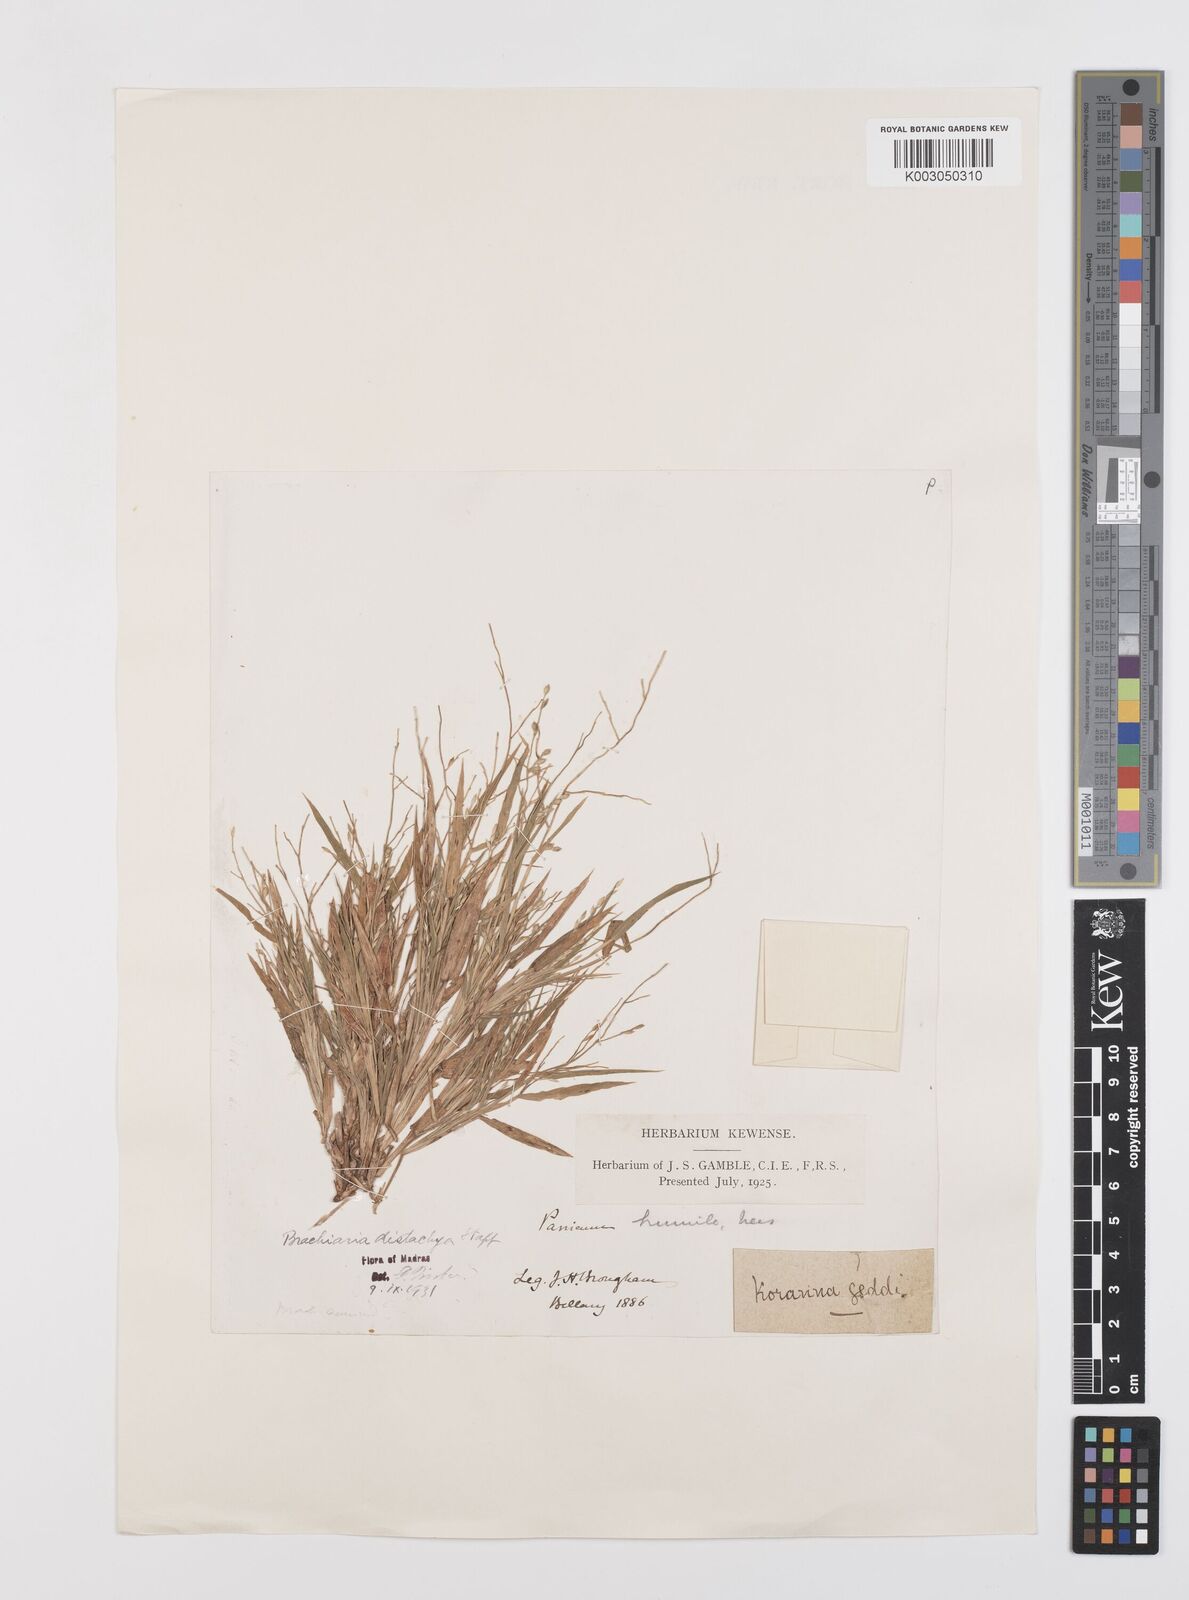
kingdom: Plantae
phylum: Tracheophyta
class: Liliopsida
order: Poales
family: Poaceae
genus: Urochloa
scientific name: Urochloa ramosa
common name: Browntop millet
